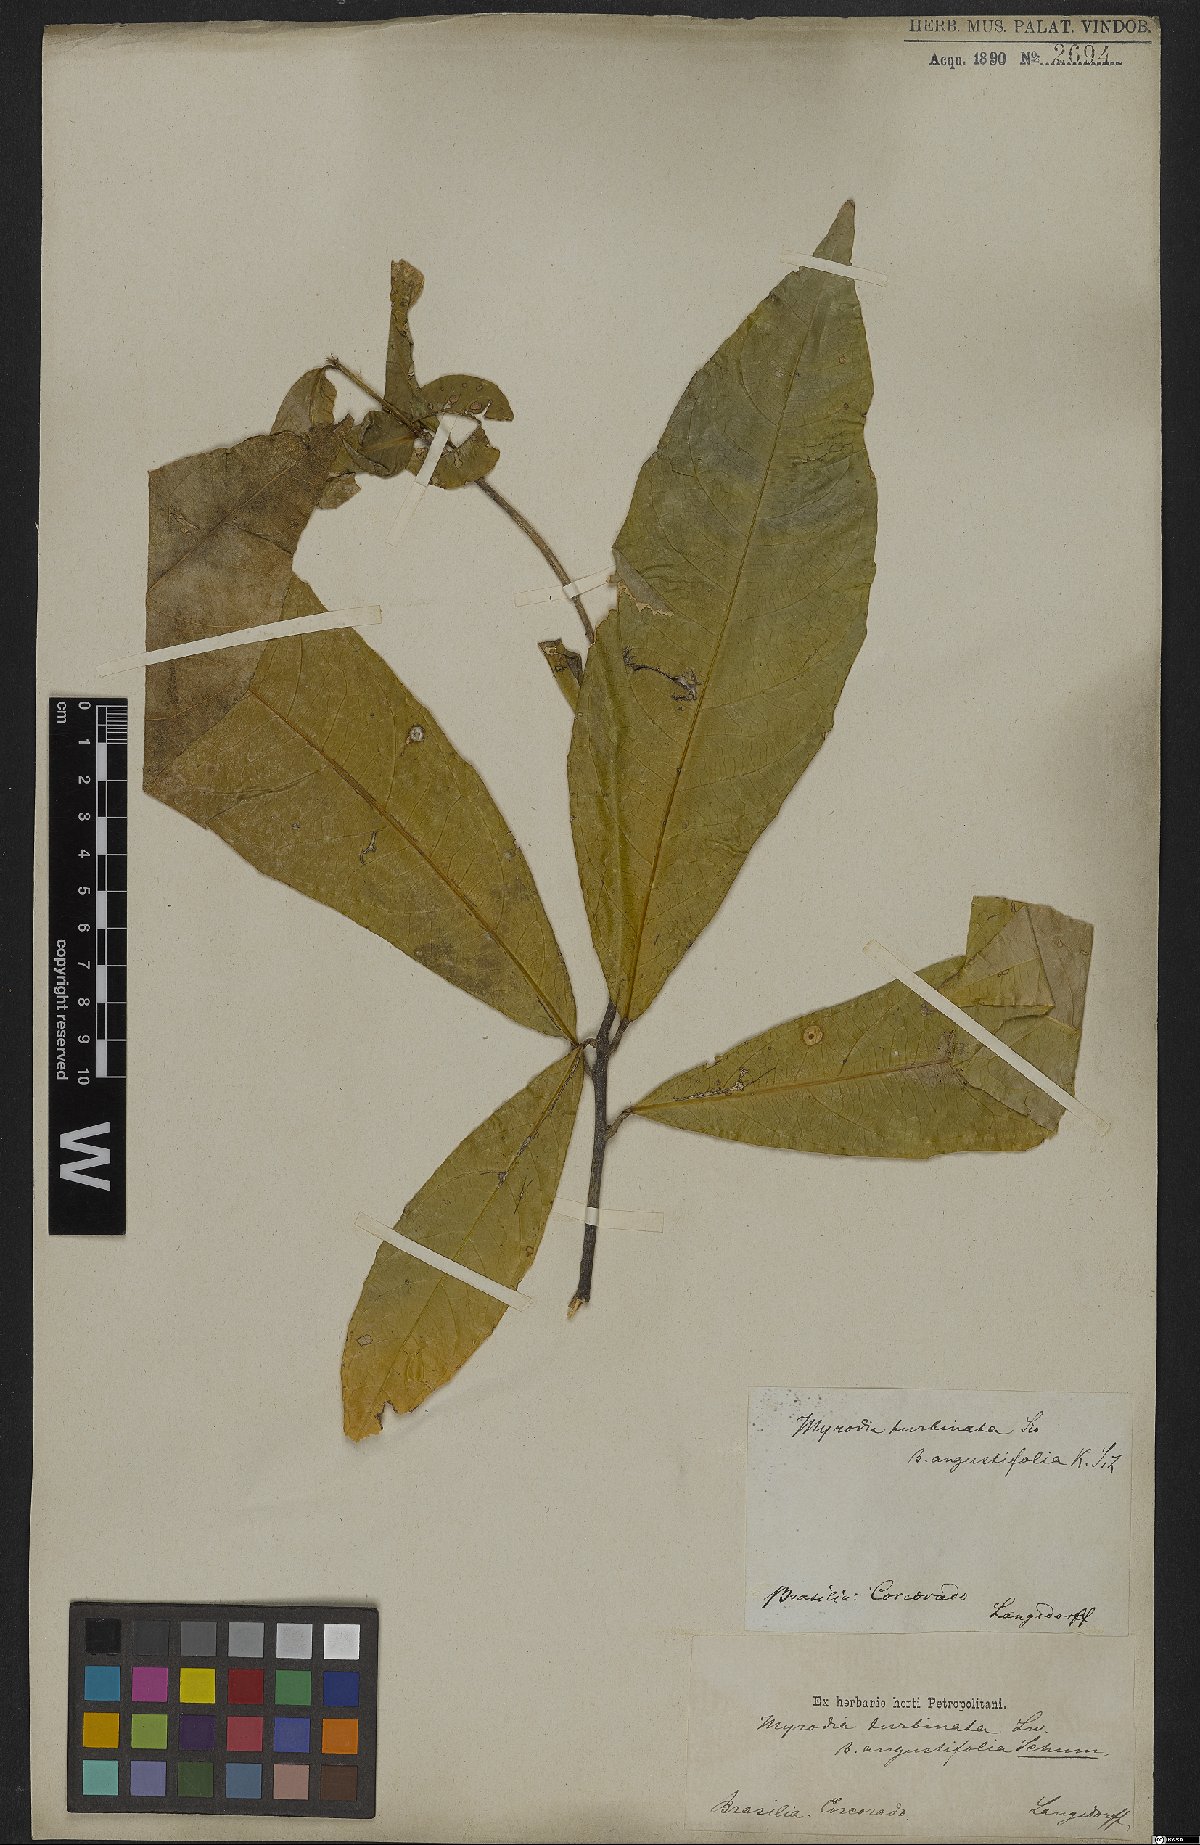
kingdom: Plantae
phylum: Tracheophyta
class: Magnoliopsida
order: Malvales
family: Malvaceae
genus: Quararibea
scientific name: Quararibea turbinata
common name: Swizzlestick-tree
